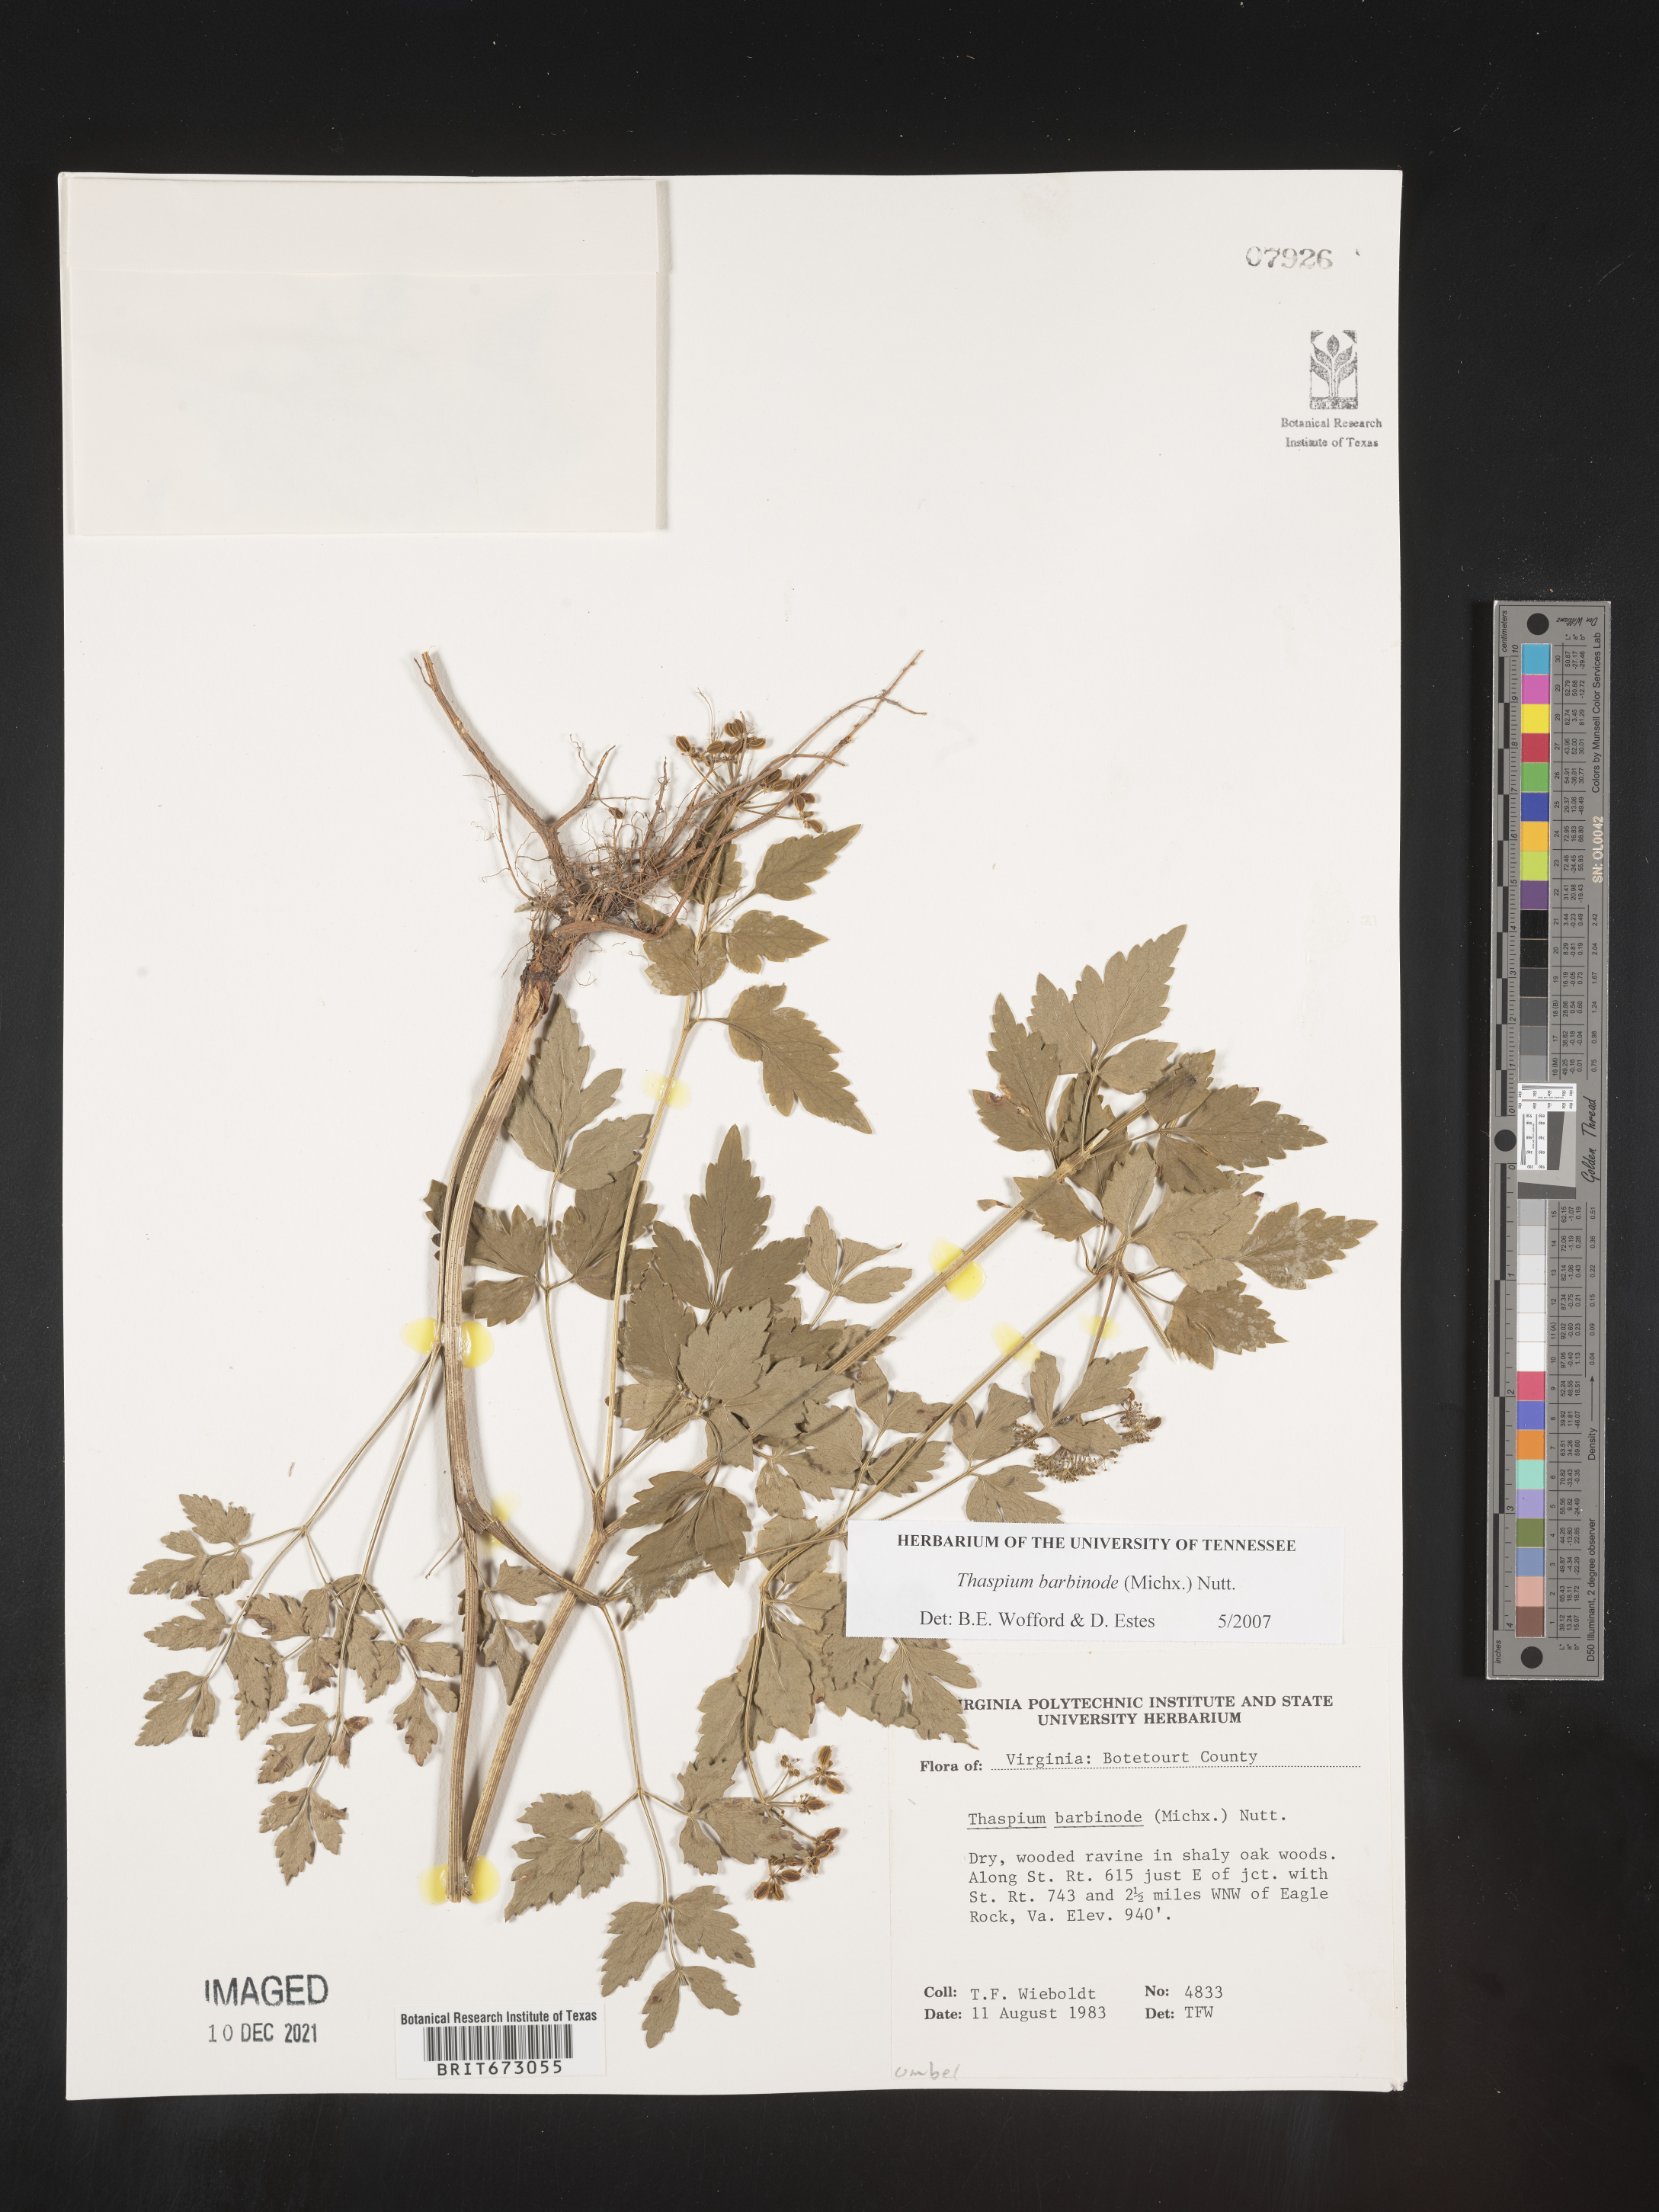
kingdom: Plantae
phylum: Tracheophyta
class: Magnoliopsida
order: Apiales
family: Apiaceae
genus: Thaspium
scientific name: Thaspium barbinode
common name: Bearded meadow-parsnip
